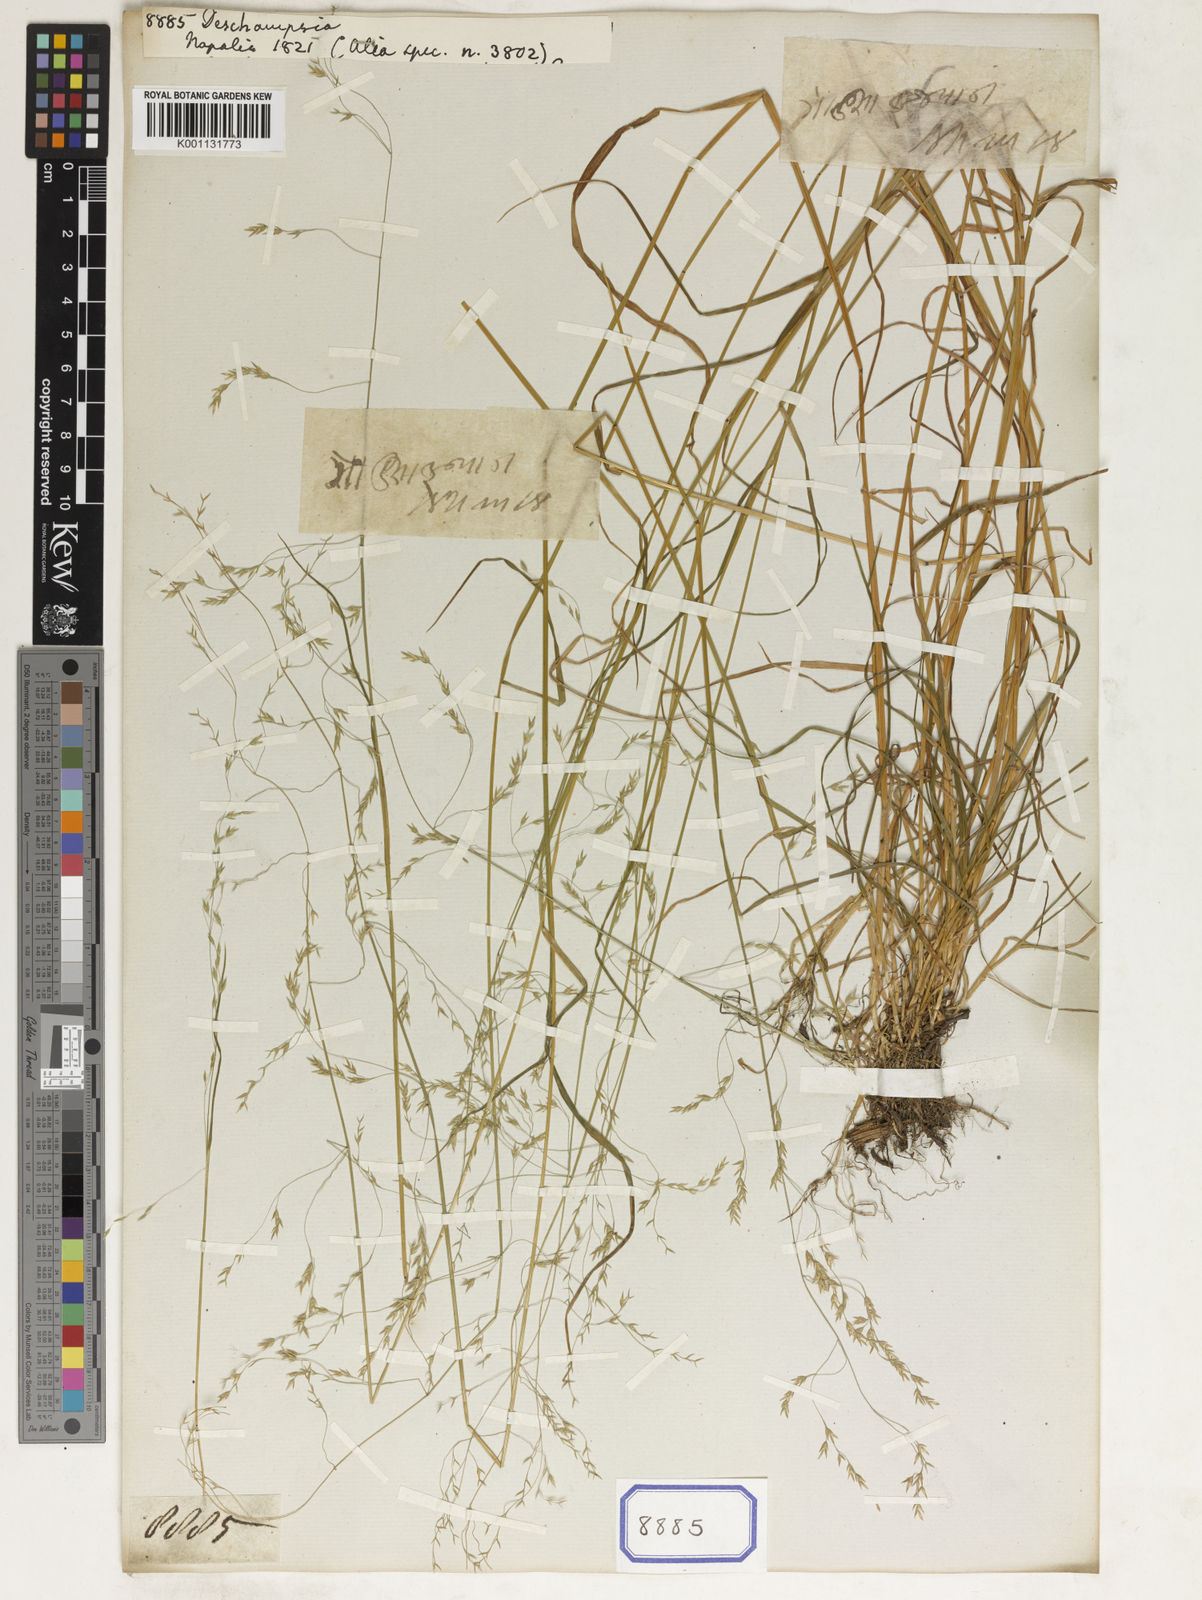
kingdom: Plantae
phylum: Tracheophyta
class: Liliopsida
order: Poales
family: Poaceae
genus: Deschampsia
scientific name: Deschampsia
